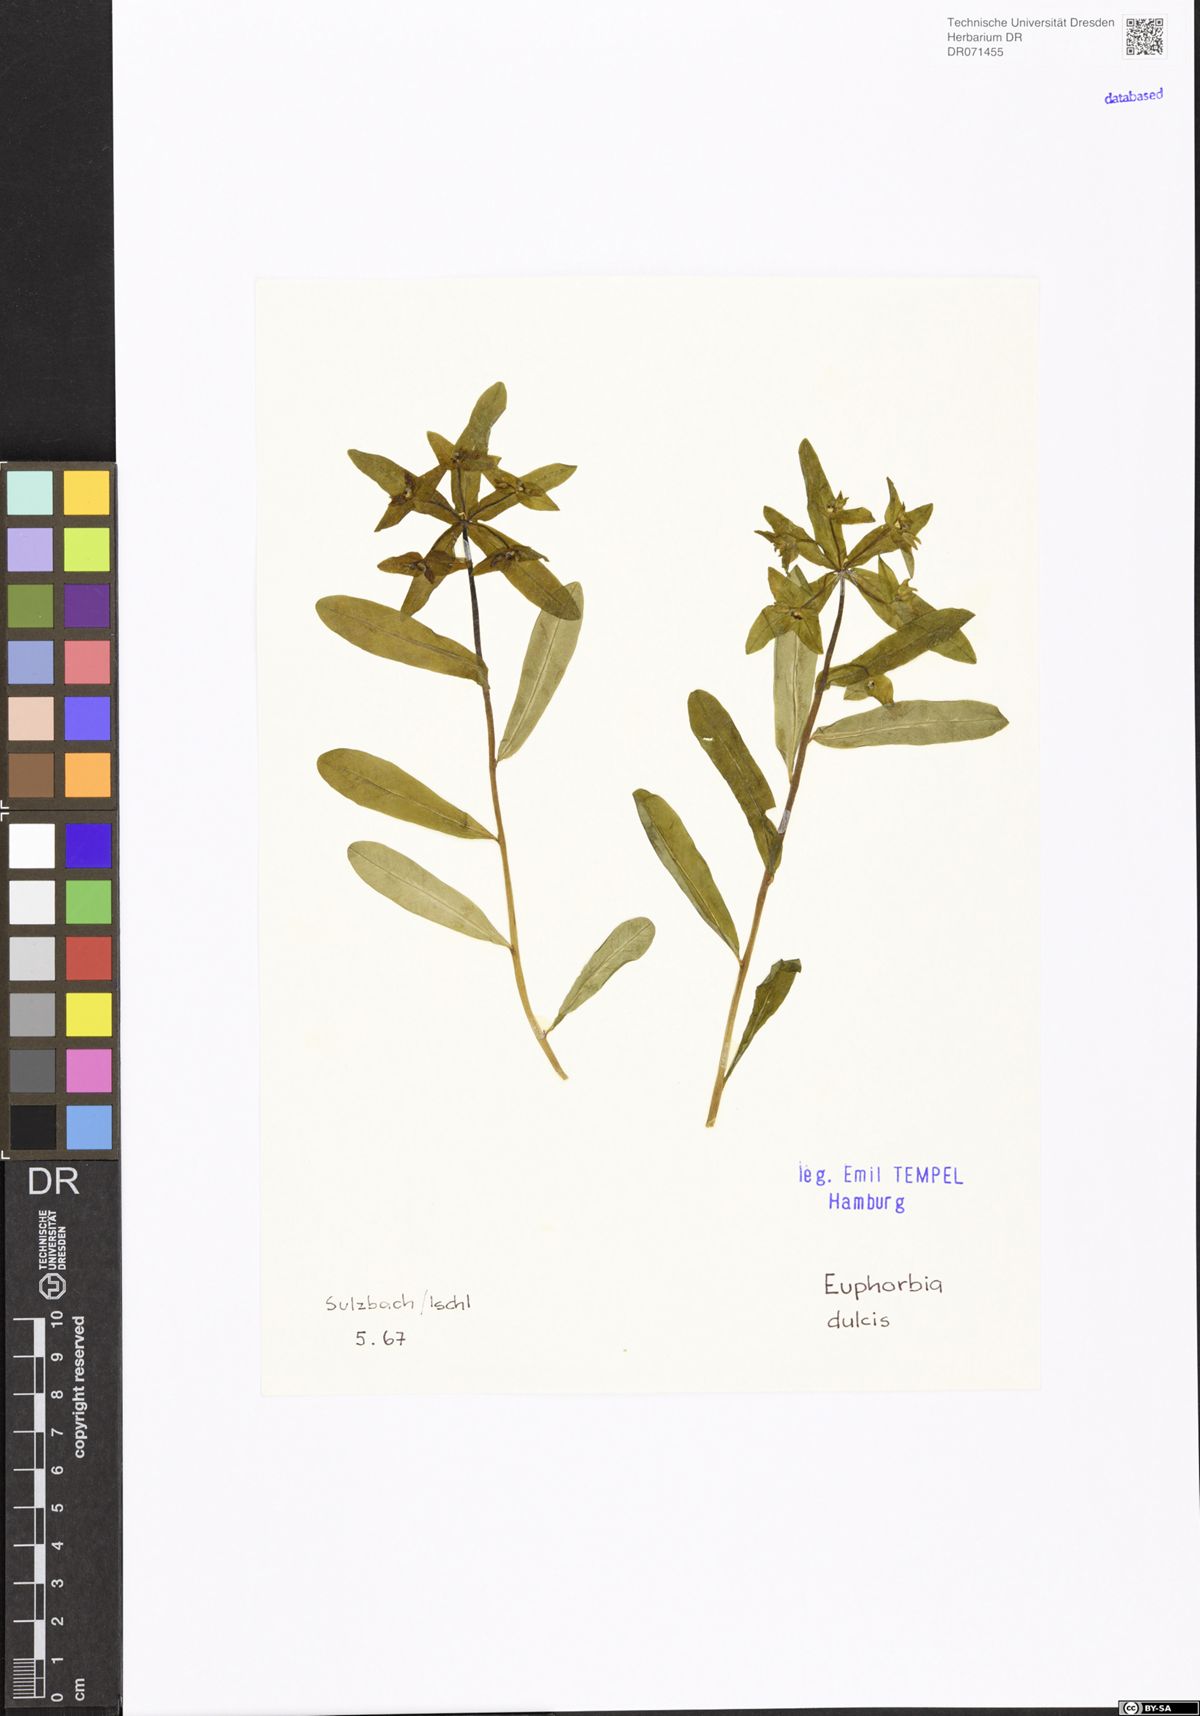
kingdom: Plantae
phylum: Tracheophyta
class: Magnoliopsida
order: Malpighiales
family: Euphorbiaceae
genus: Euphorbia
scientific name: Euphorbia dulcis
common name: Sweet spurge
